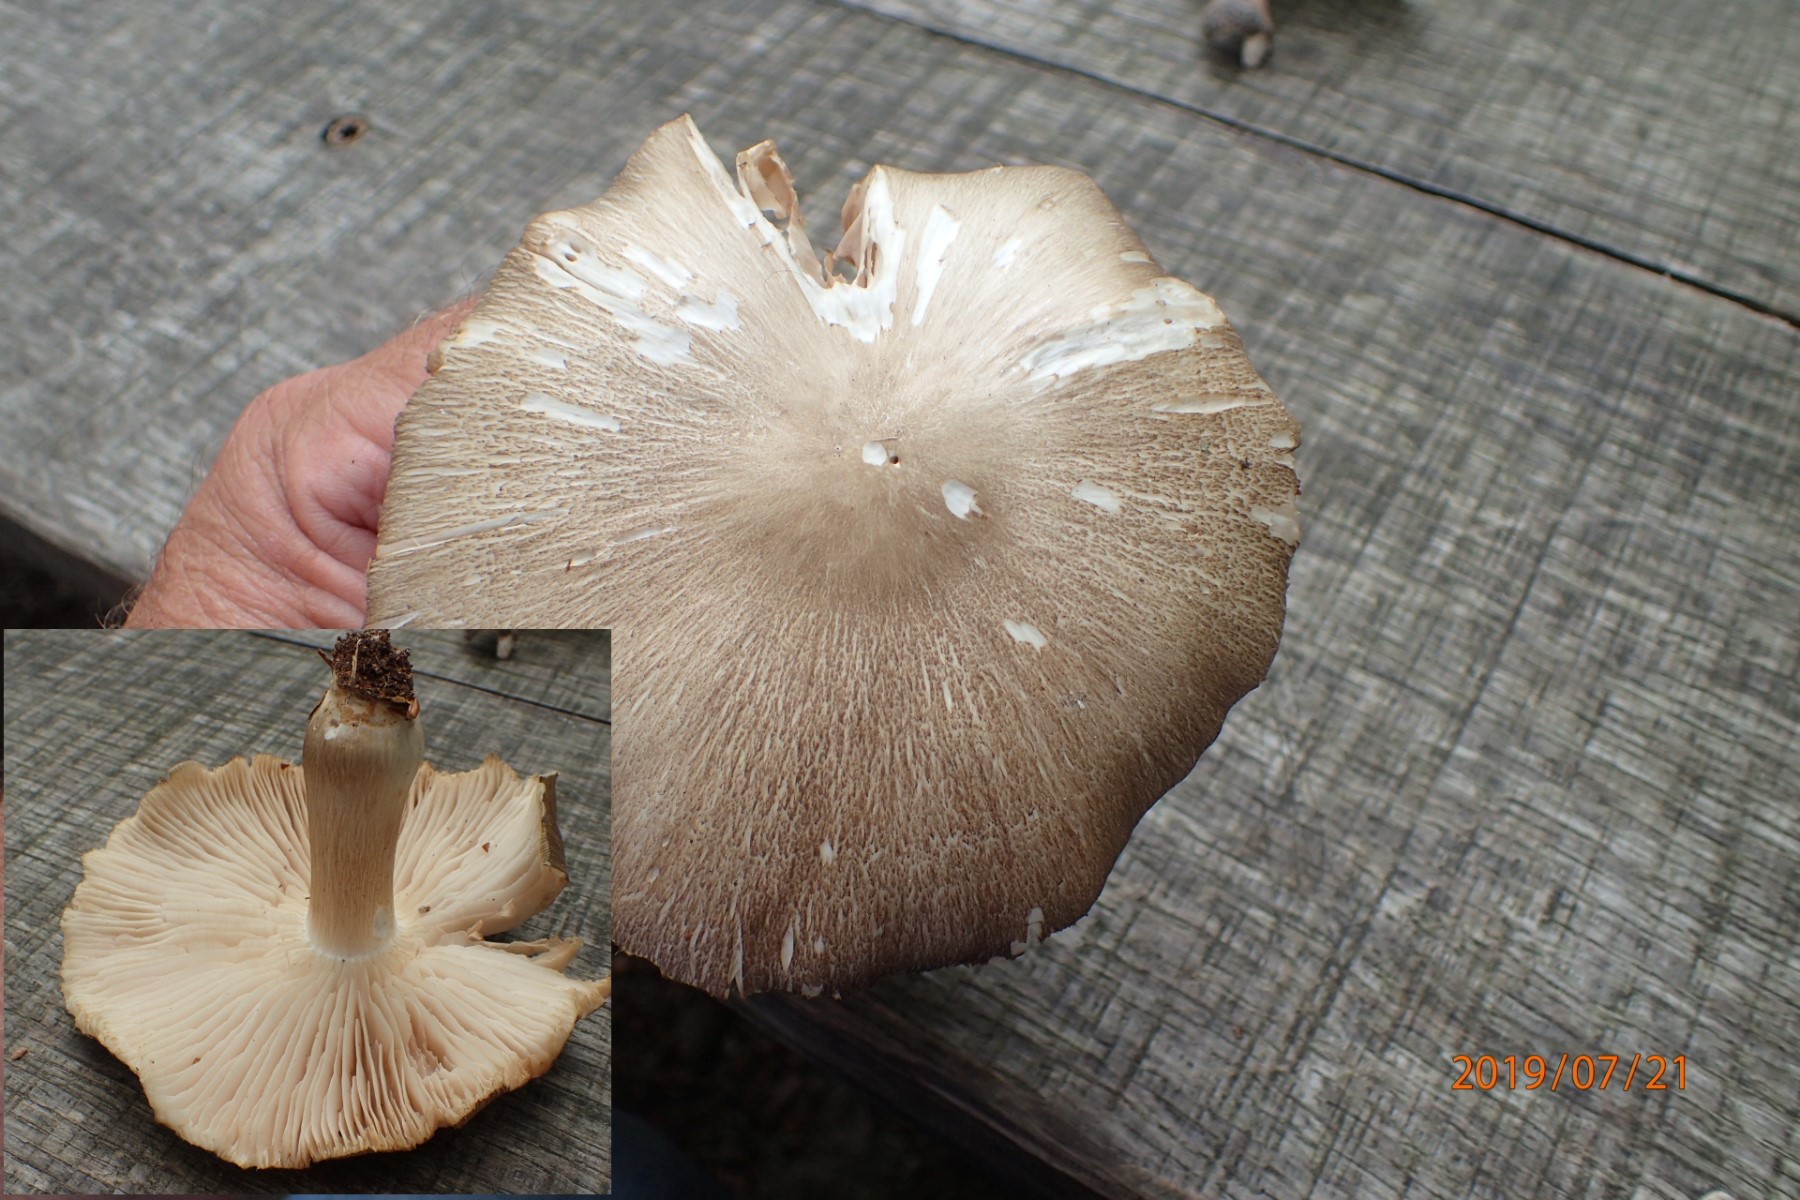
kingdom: Fungi
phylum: Basidiomycota
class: Agaricomycetes
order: Agaricales
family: Tricholomataceae
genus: Megacollybia
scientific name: Megacollybia platyphylla
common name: bredbladet væbnerhat
